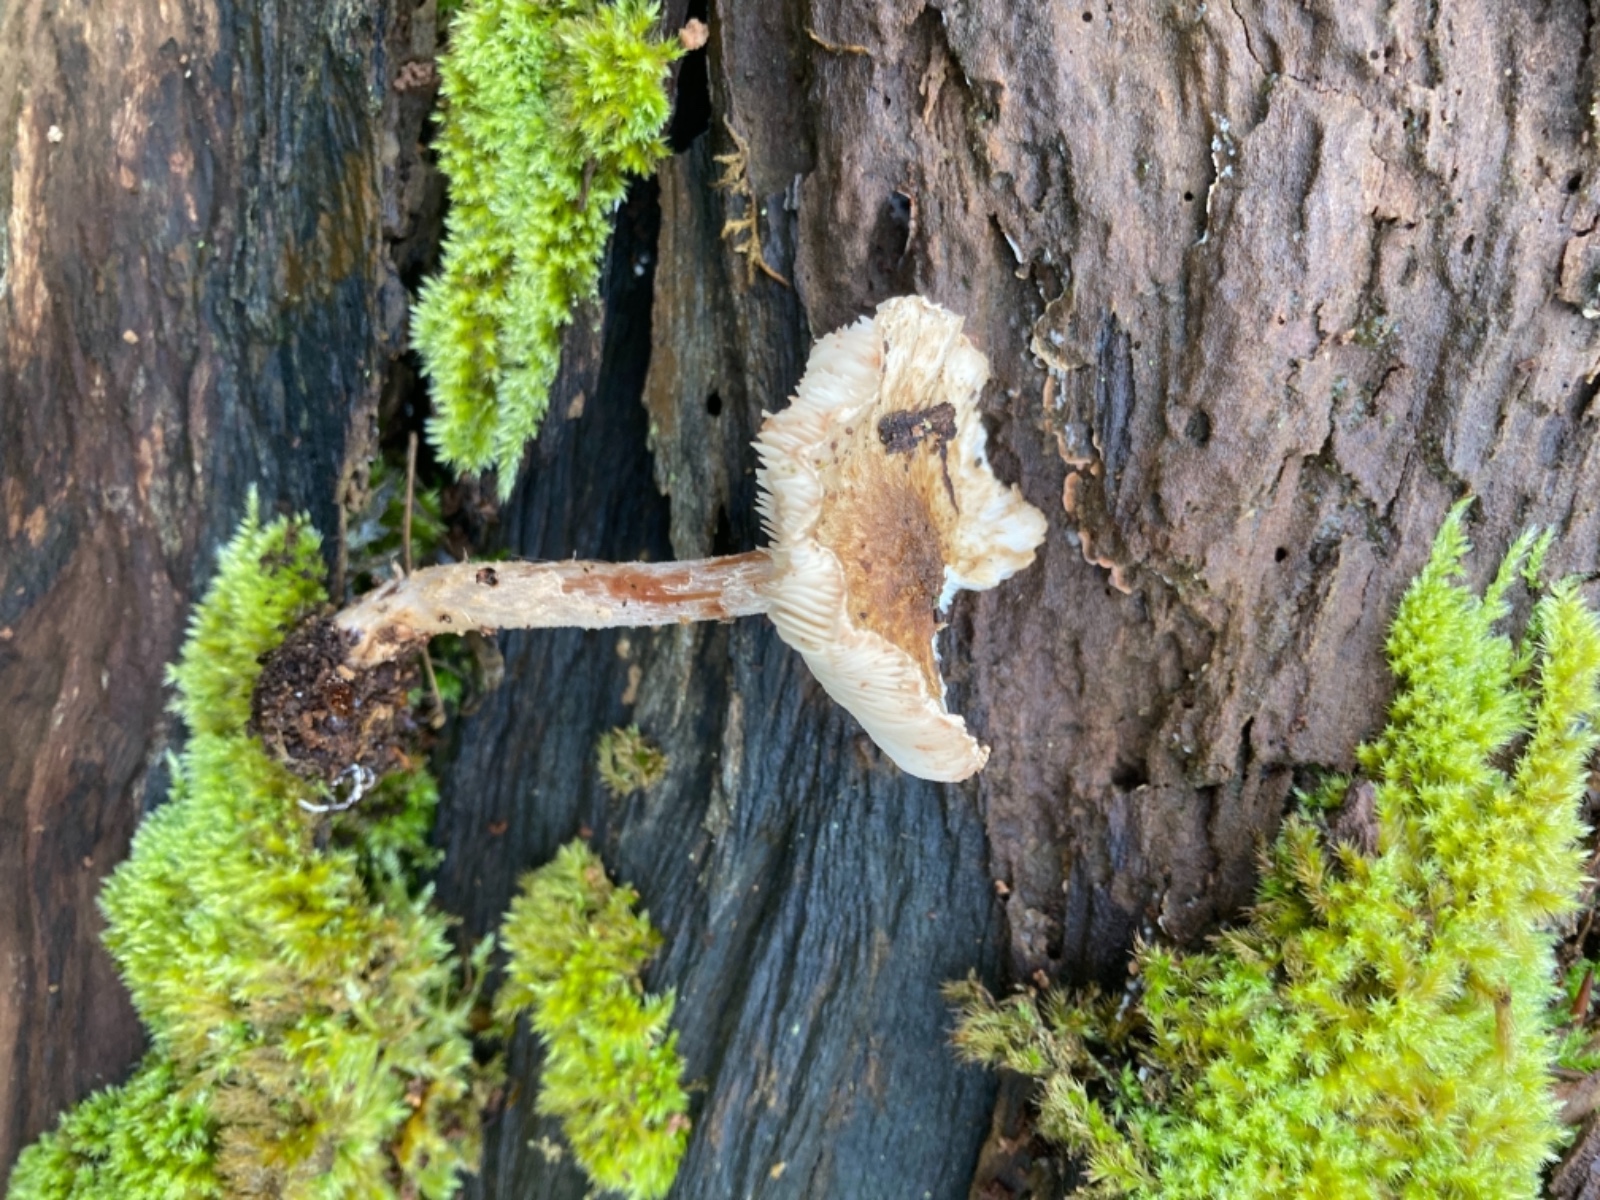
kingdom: Fungi
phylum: Basidiomycota
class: Agaricomycetes
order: Agaricales
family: Agaricaceae
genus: Leucocoprinus
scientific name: Leucocoprinus straminellus
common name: rustbrun parasolhat
